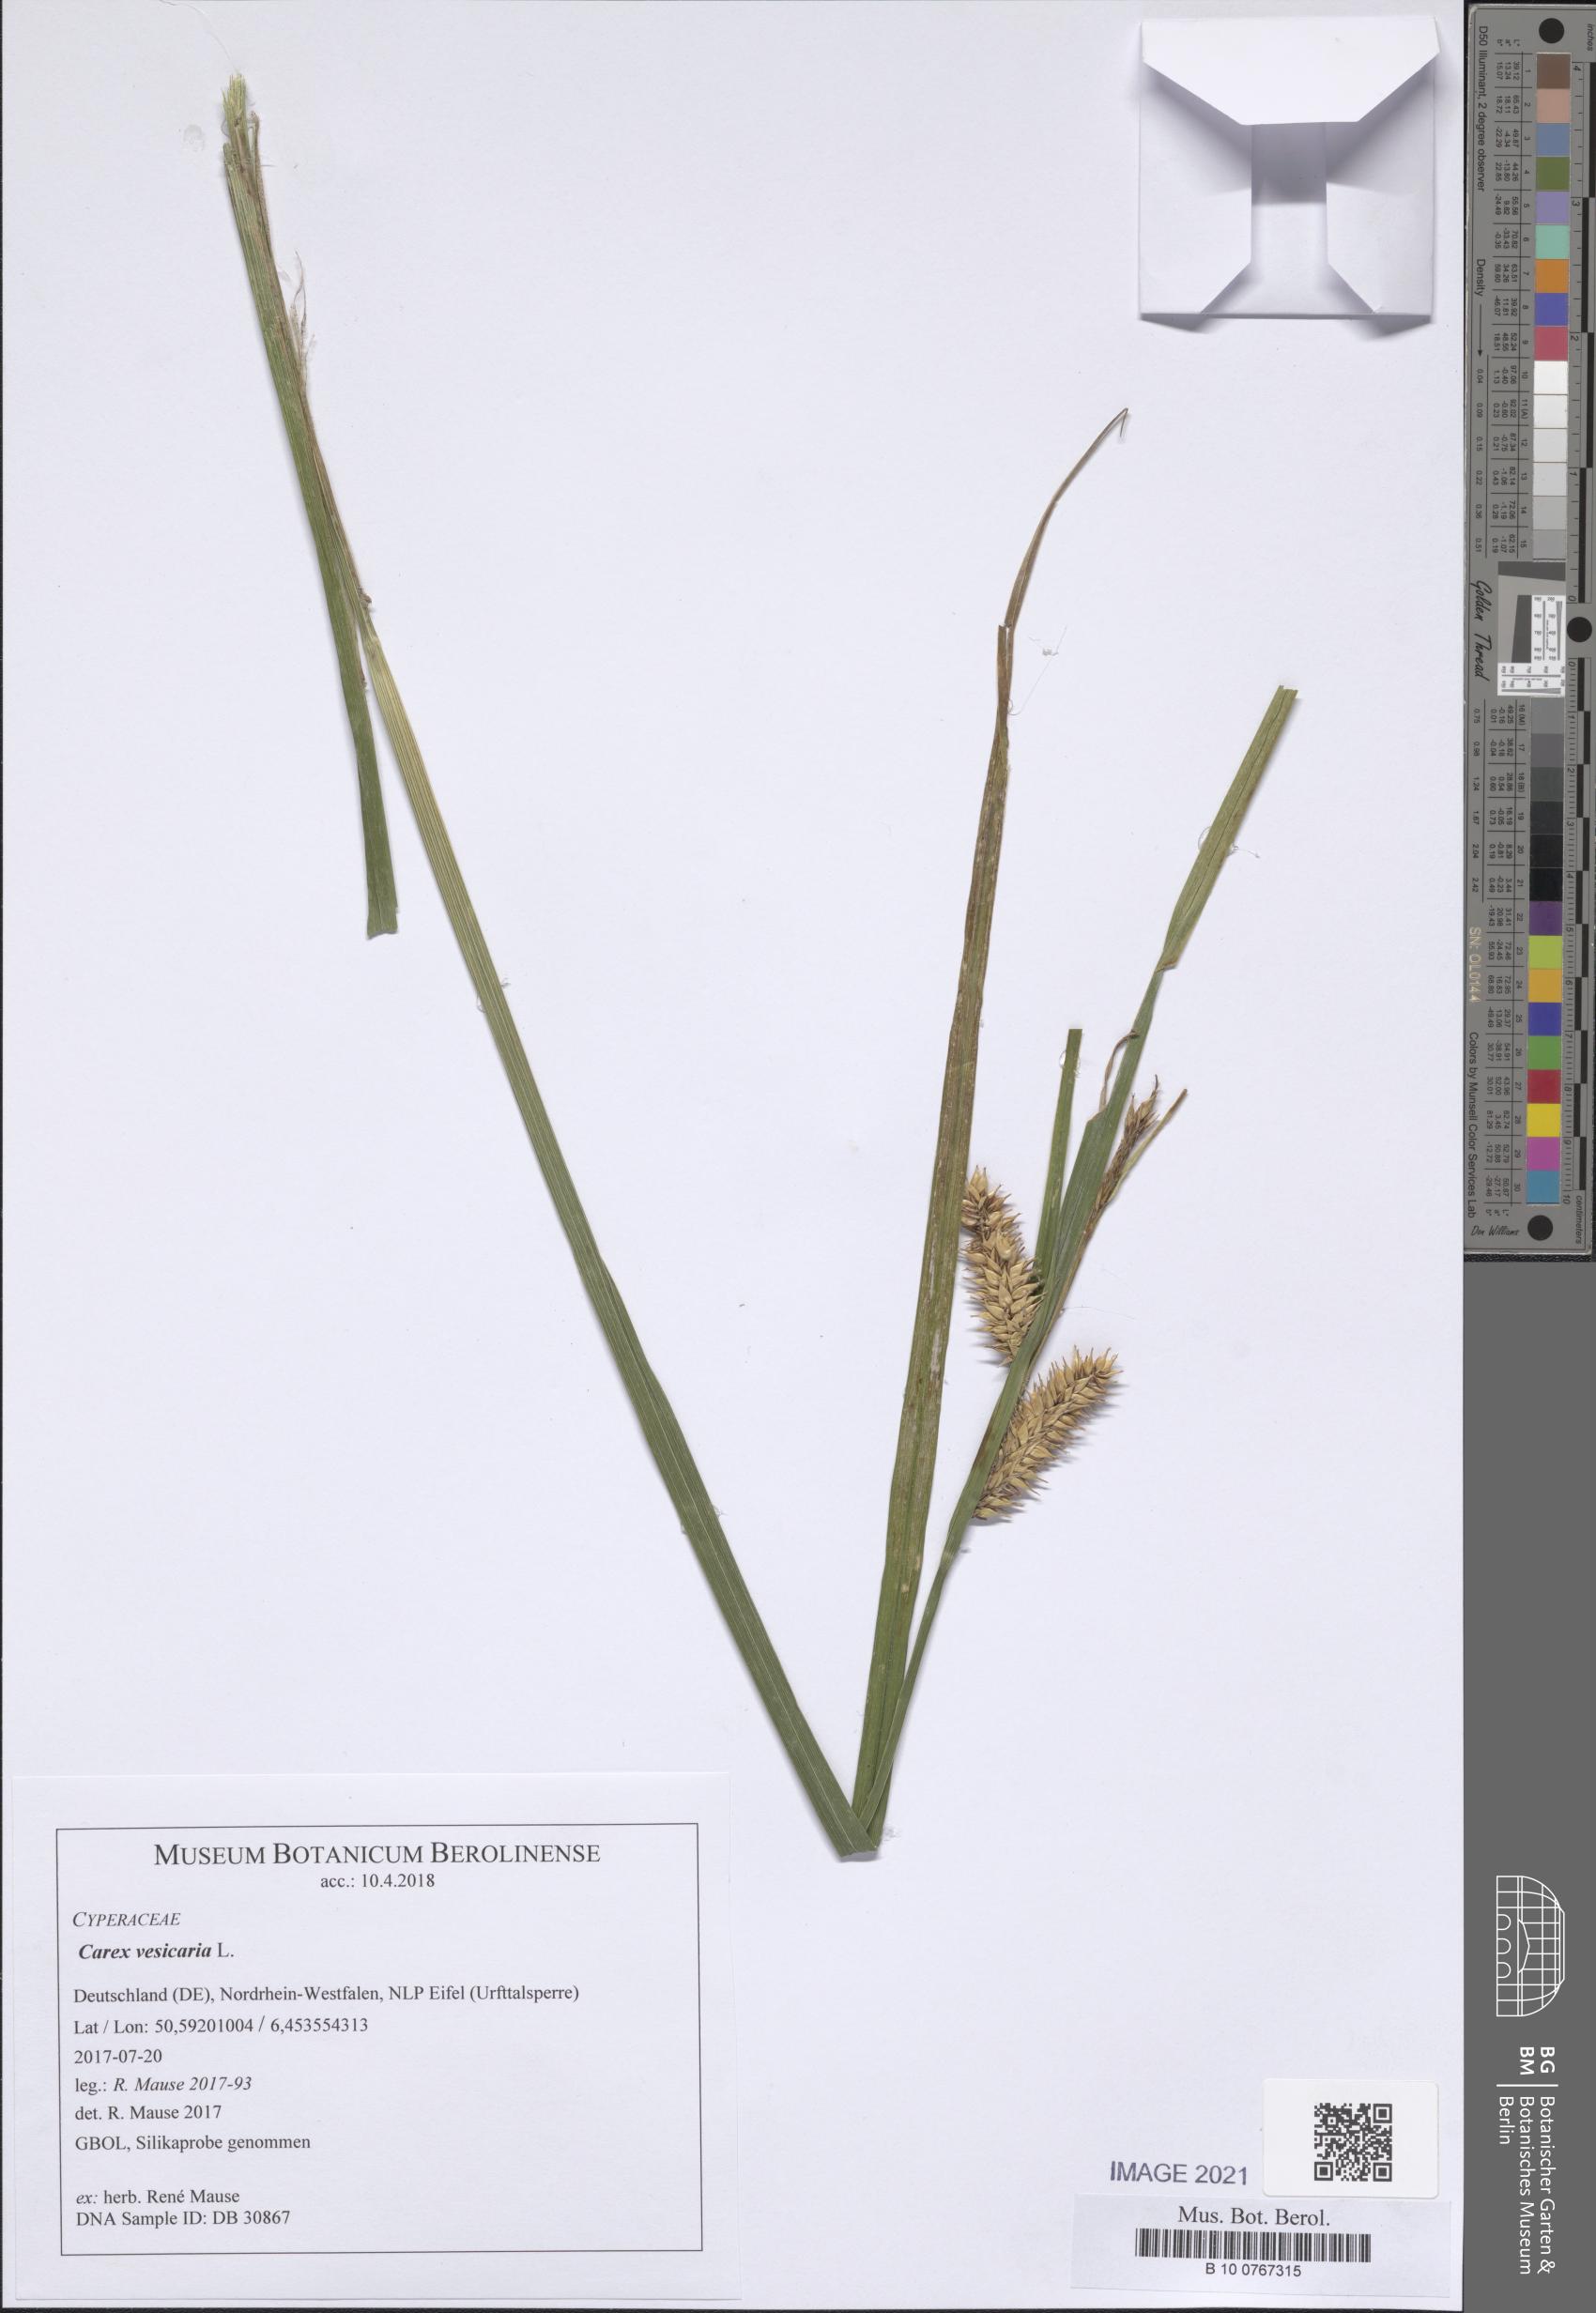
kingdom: Plantae
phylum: Tracheophyta
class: Liliopsida
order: Poales
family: Cyperaceae
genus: Carex
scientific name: Carex vesicaria
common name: Bladder-sedge
